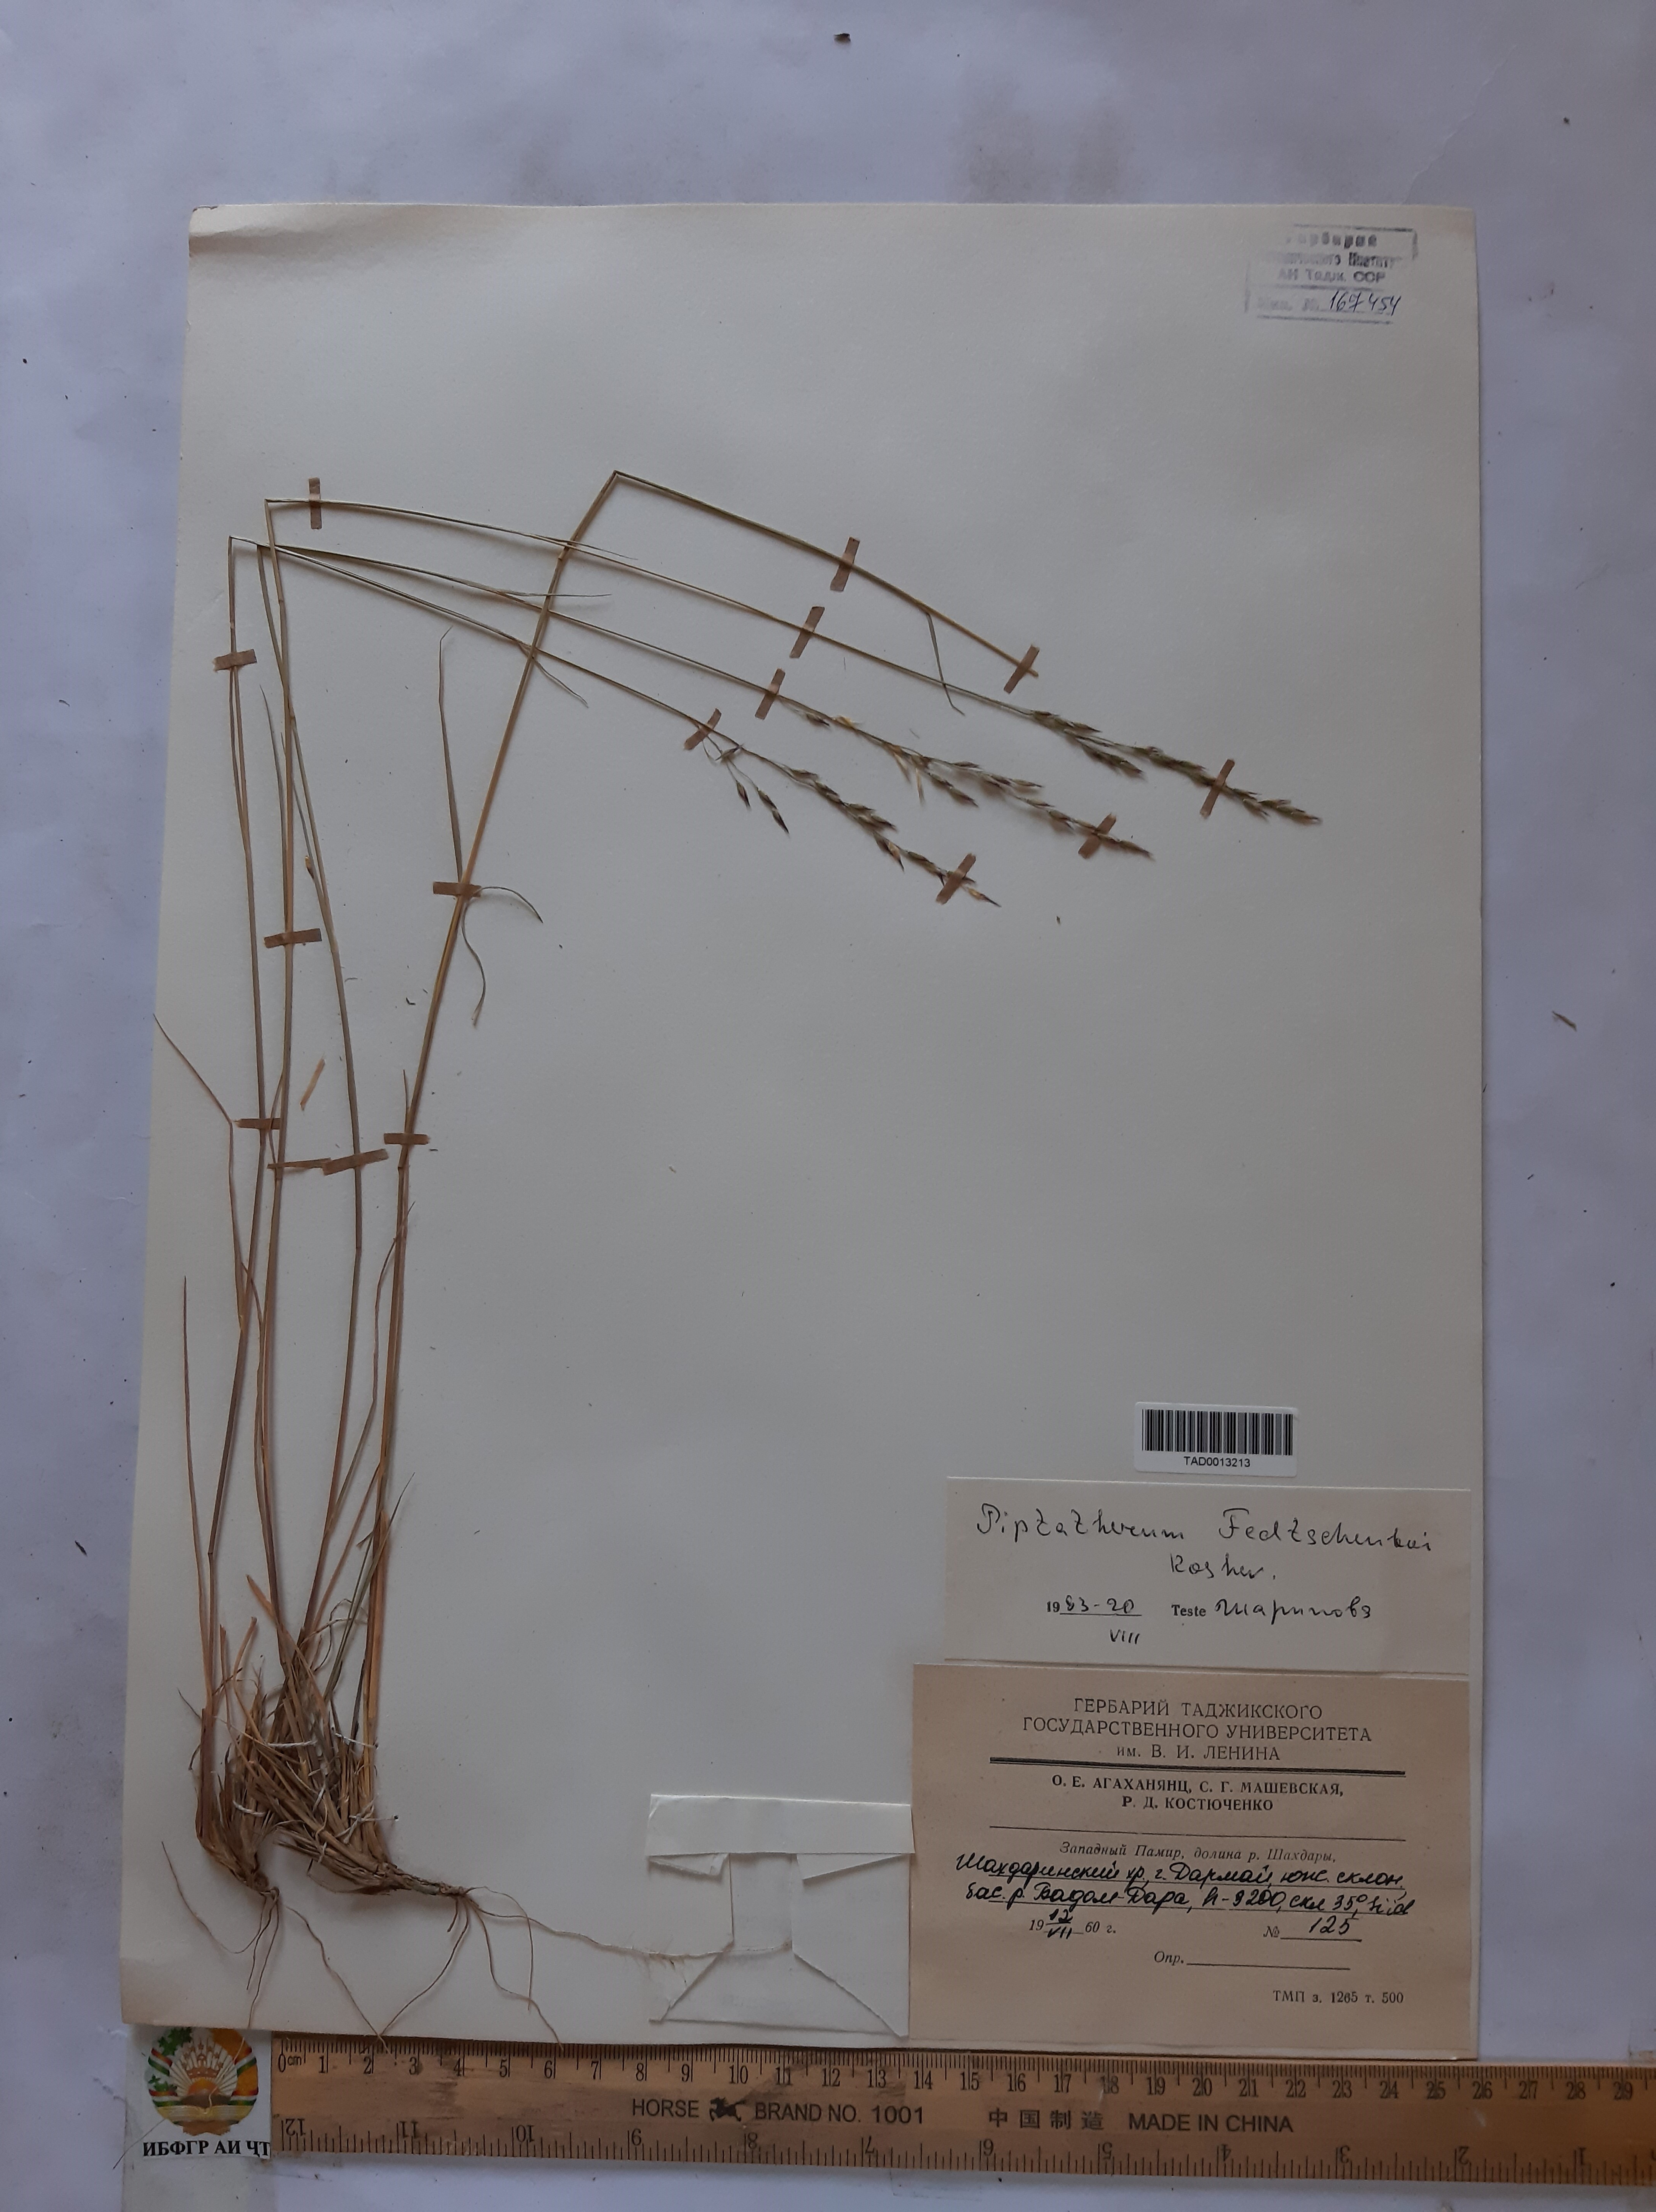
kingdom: Plantae
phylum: Tracheophyta
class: Liliopsida
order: Poales
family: Poaceae
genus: Piptatherum
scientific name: Piptatherum sogdianum
